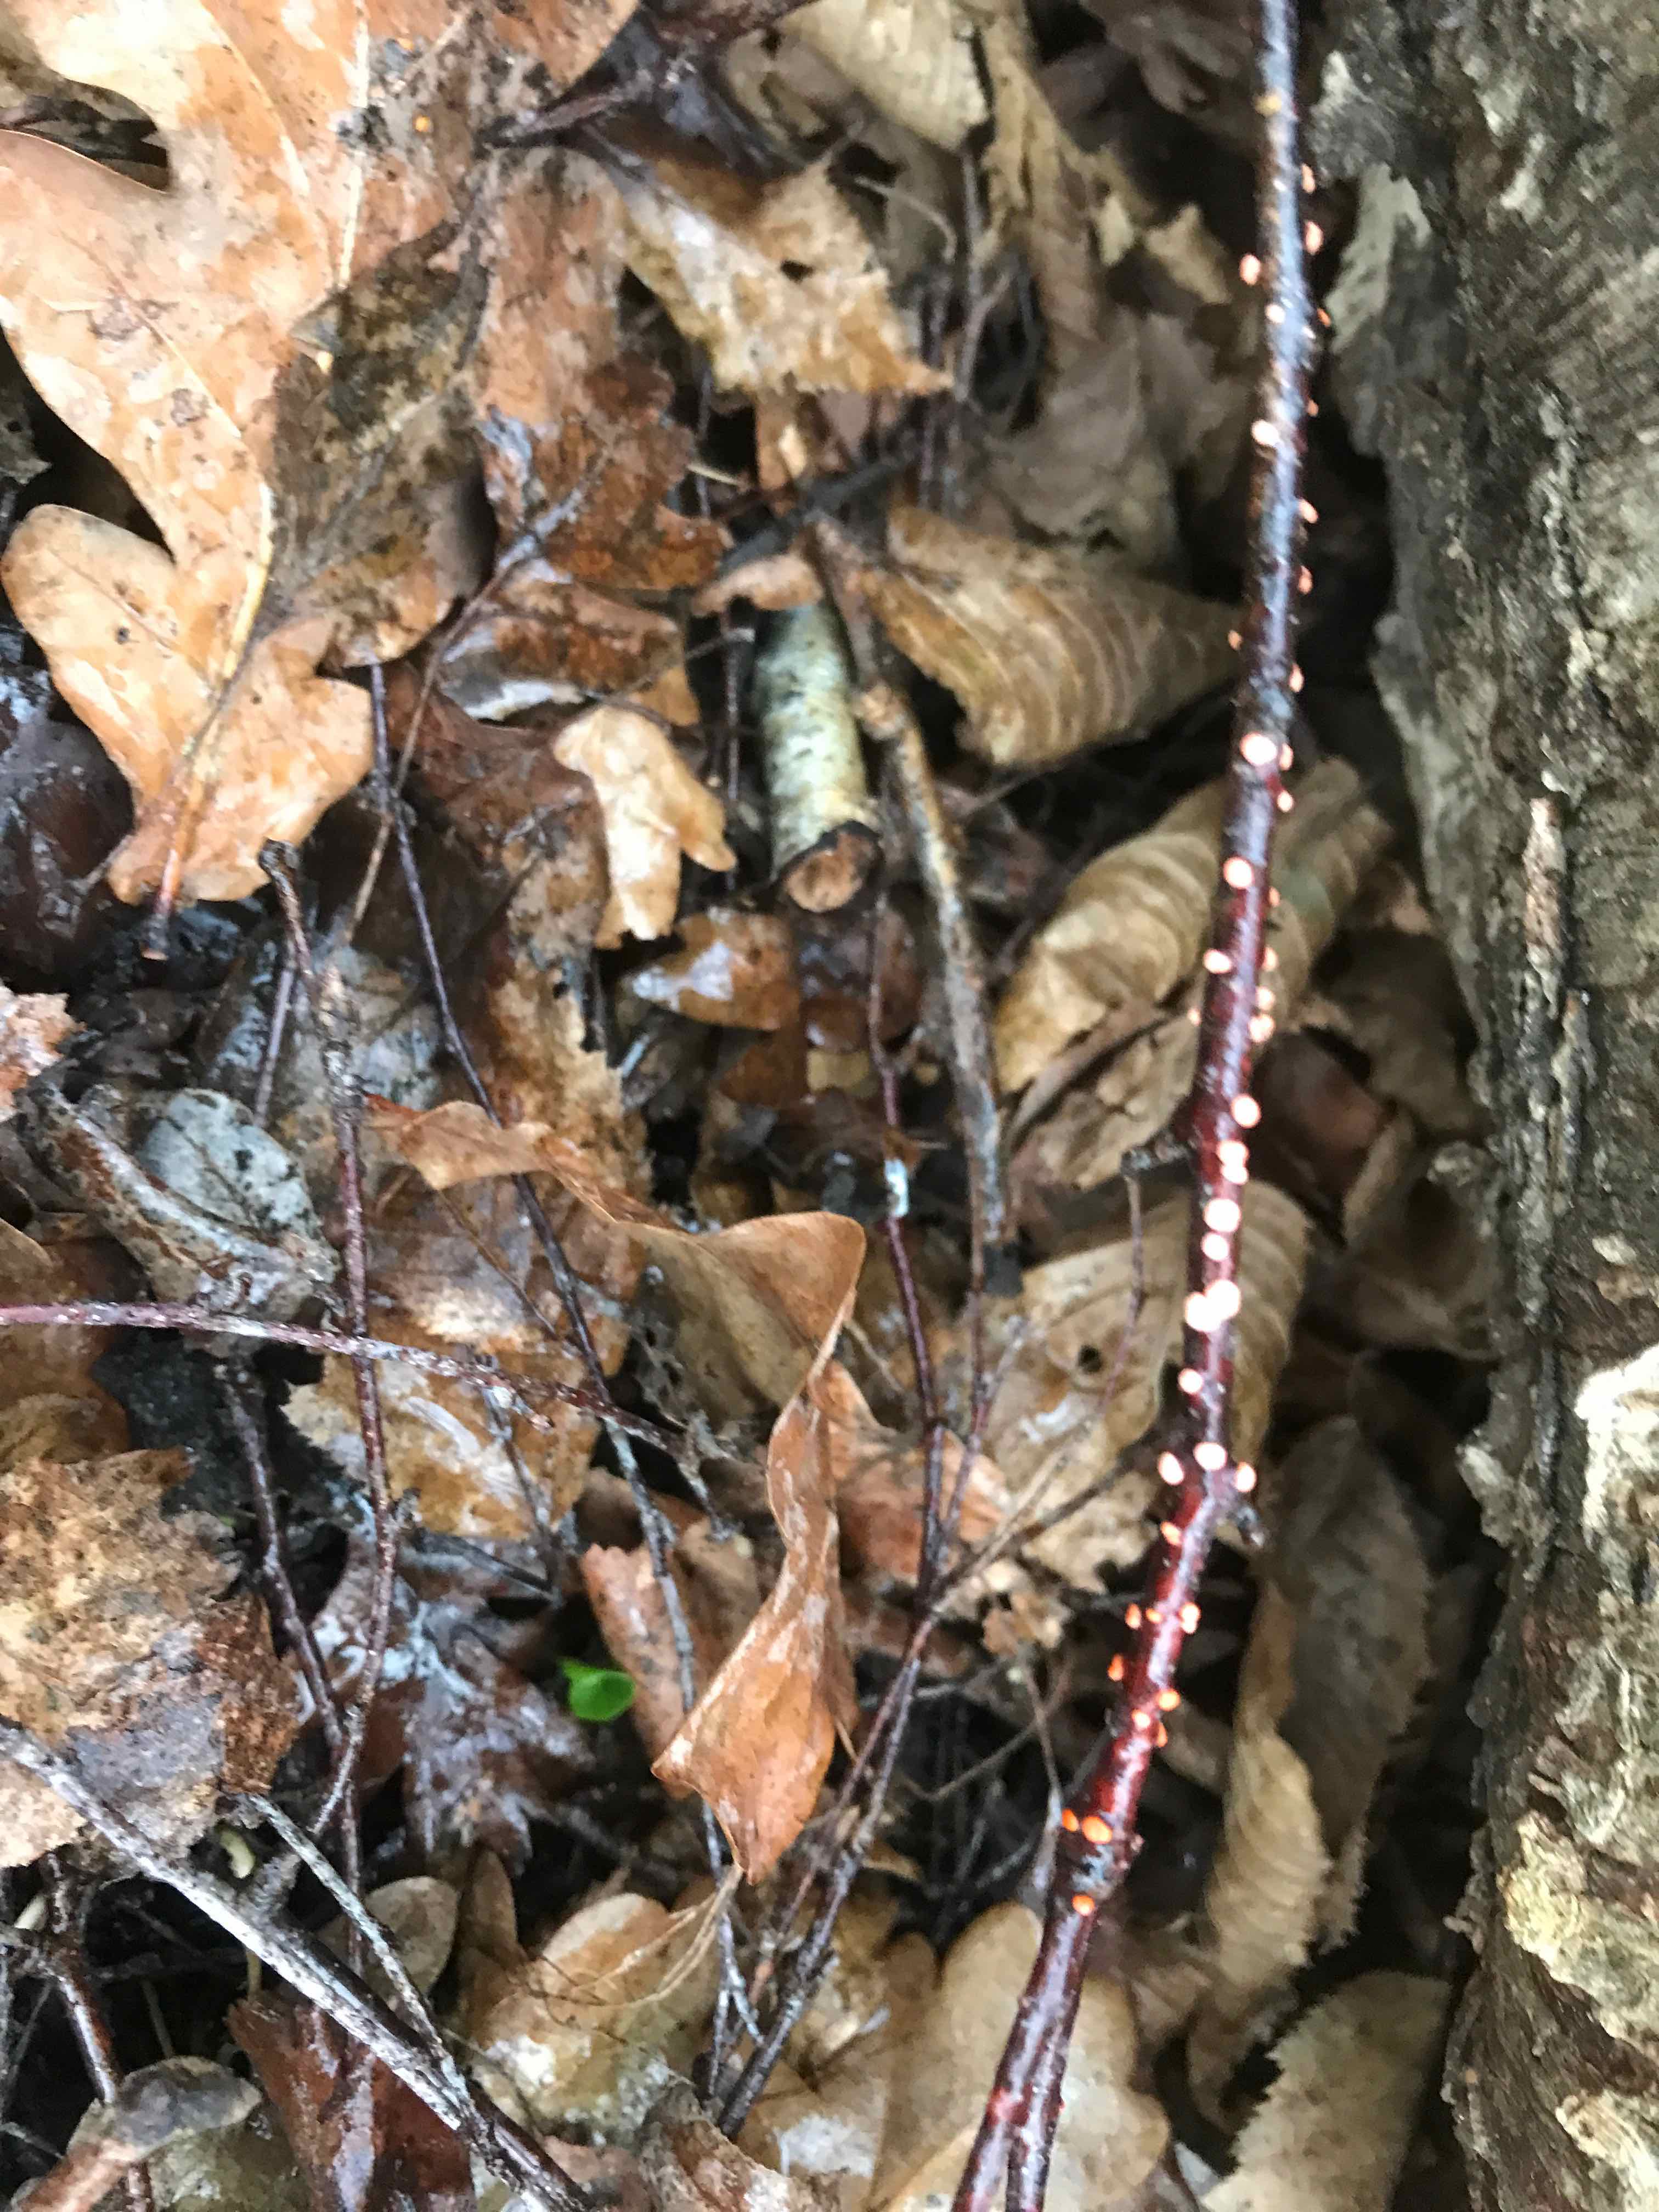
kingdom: Fungi
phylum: Ascomycota
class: Sordariomycetes
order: Hypocreales
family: Nectriaceae
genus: Nectria
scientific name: Nectria cinnabarina
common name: almindelig cinnobersvamp
